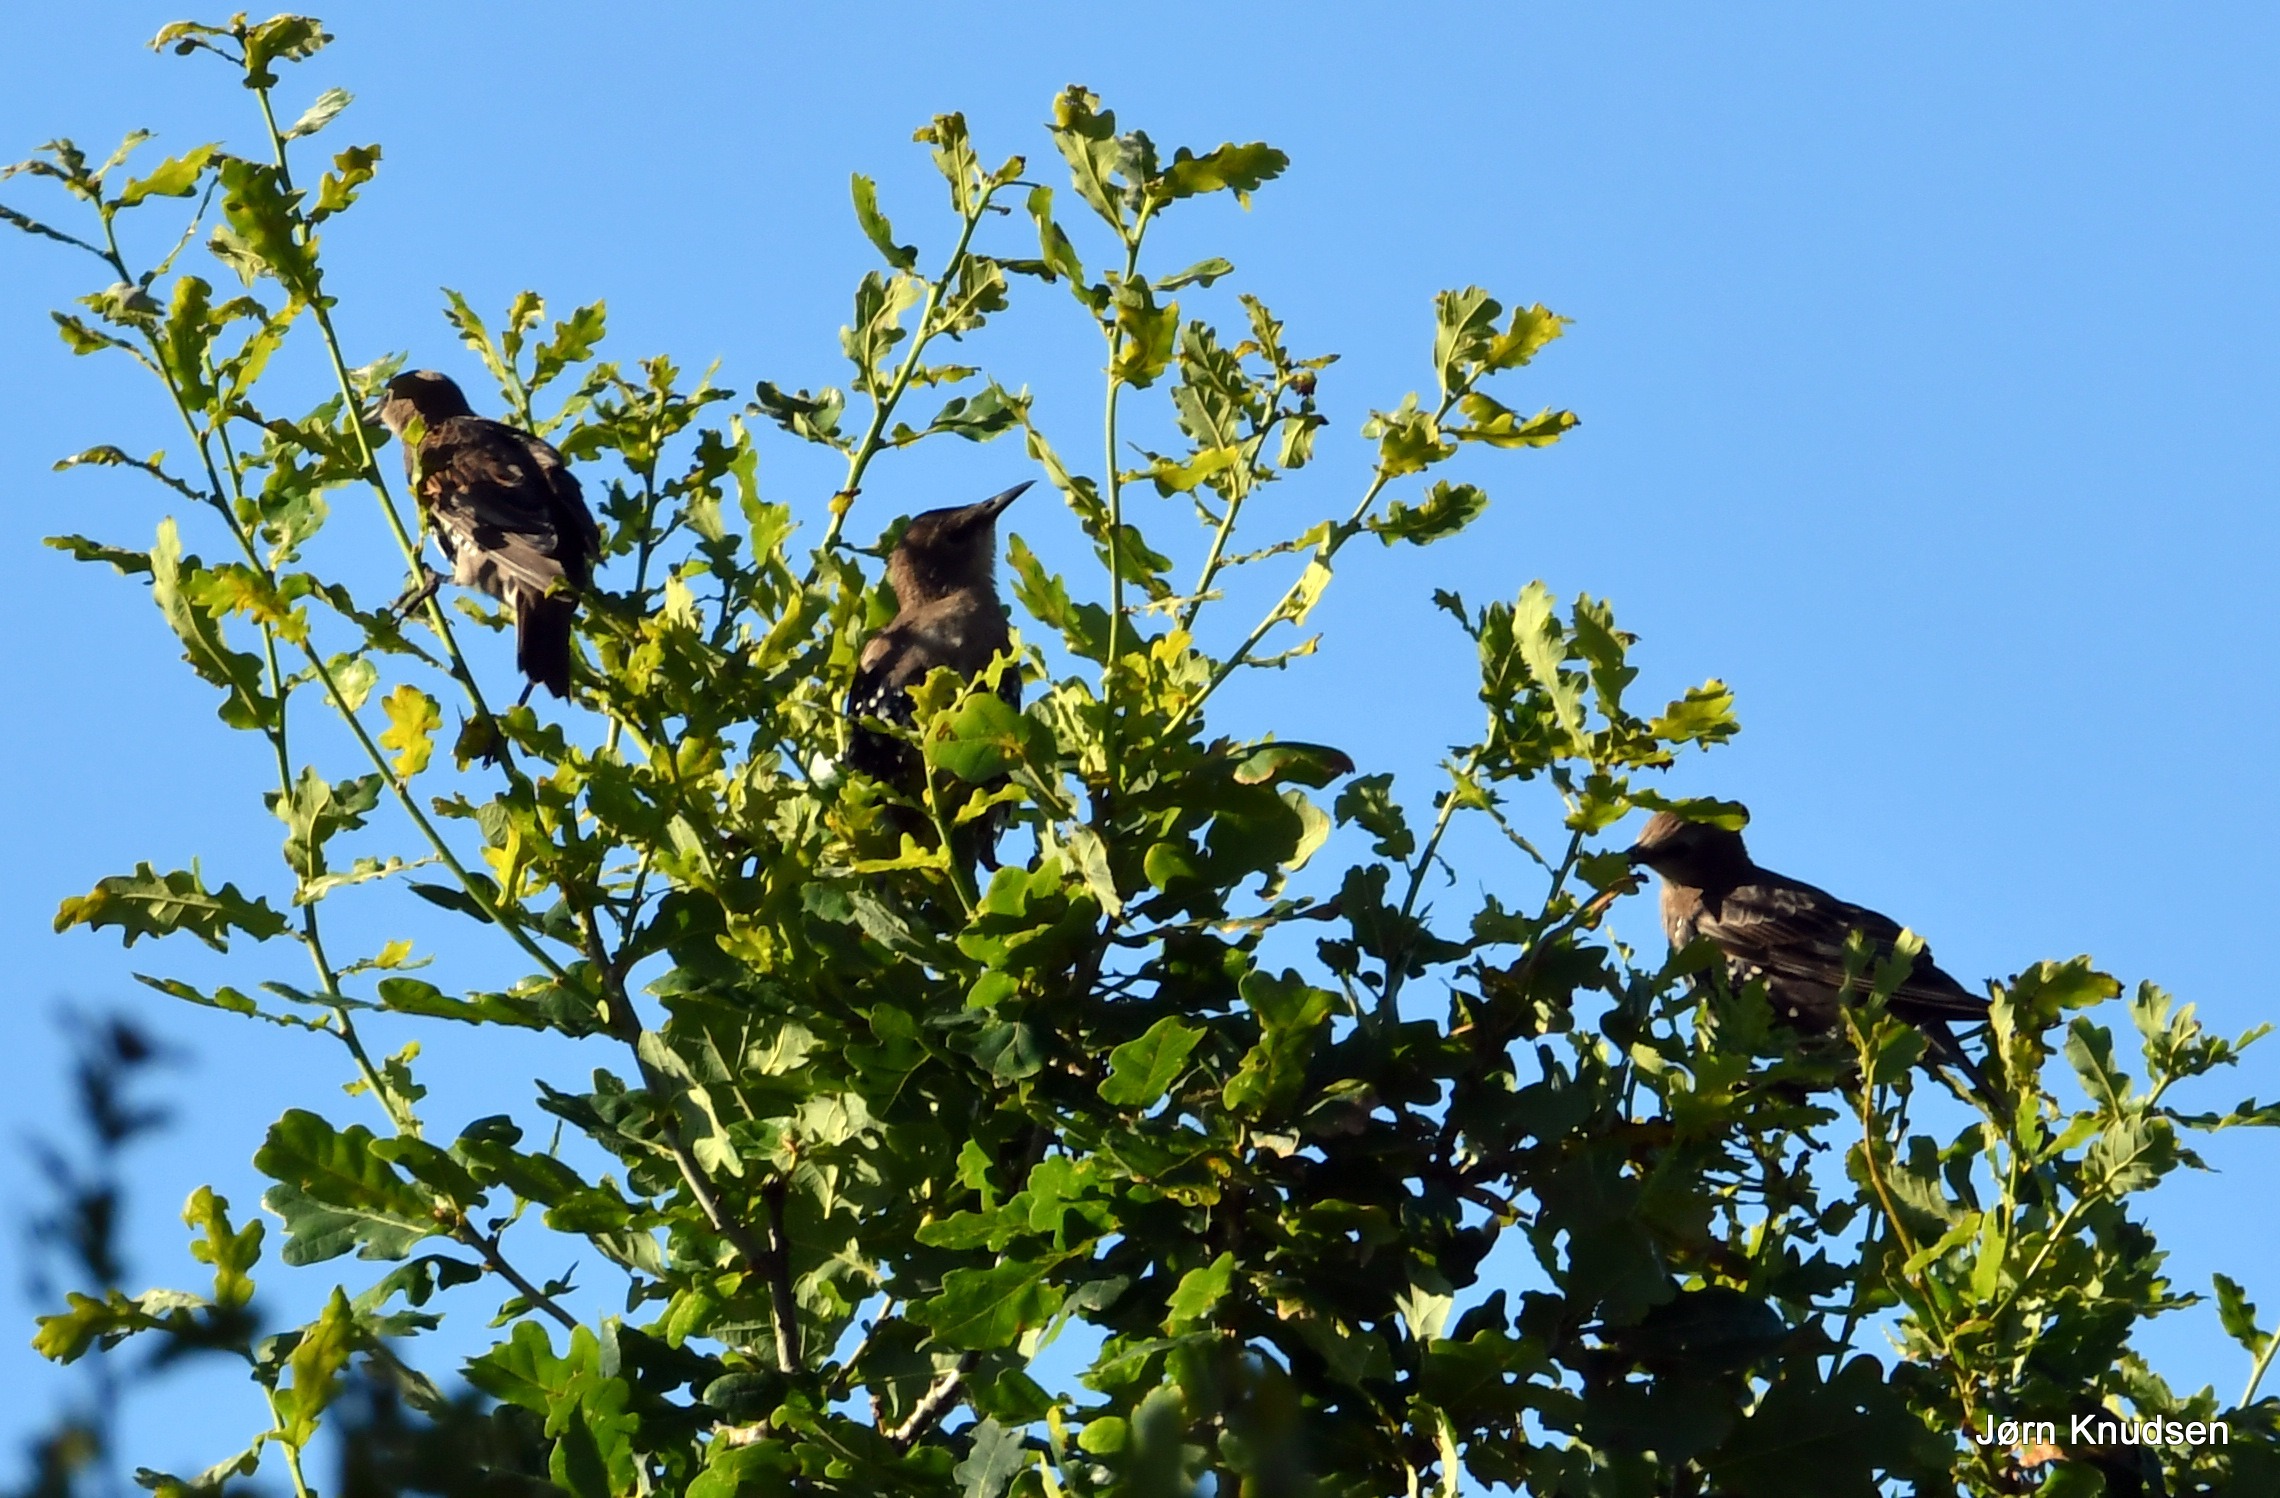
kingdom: Animalia
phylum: Chordata
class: Aves
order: Passeriformes
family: Sturnidae
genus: Sturnus
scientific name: Sturnus vulgaris
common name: Stær
